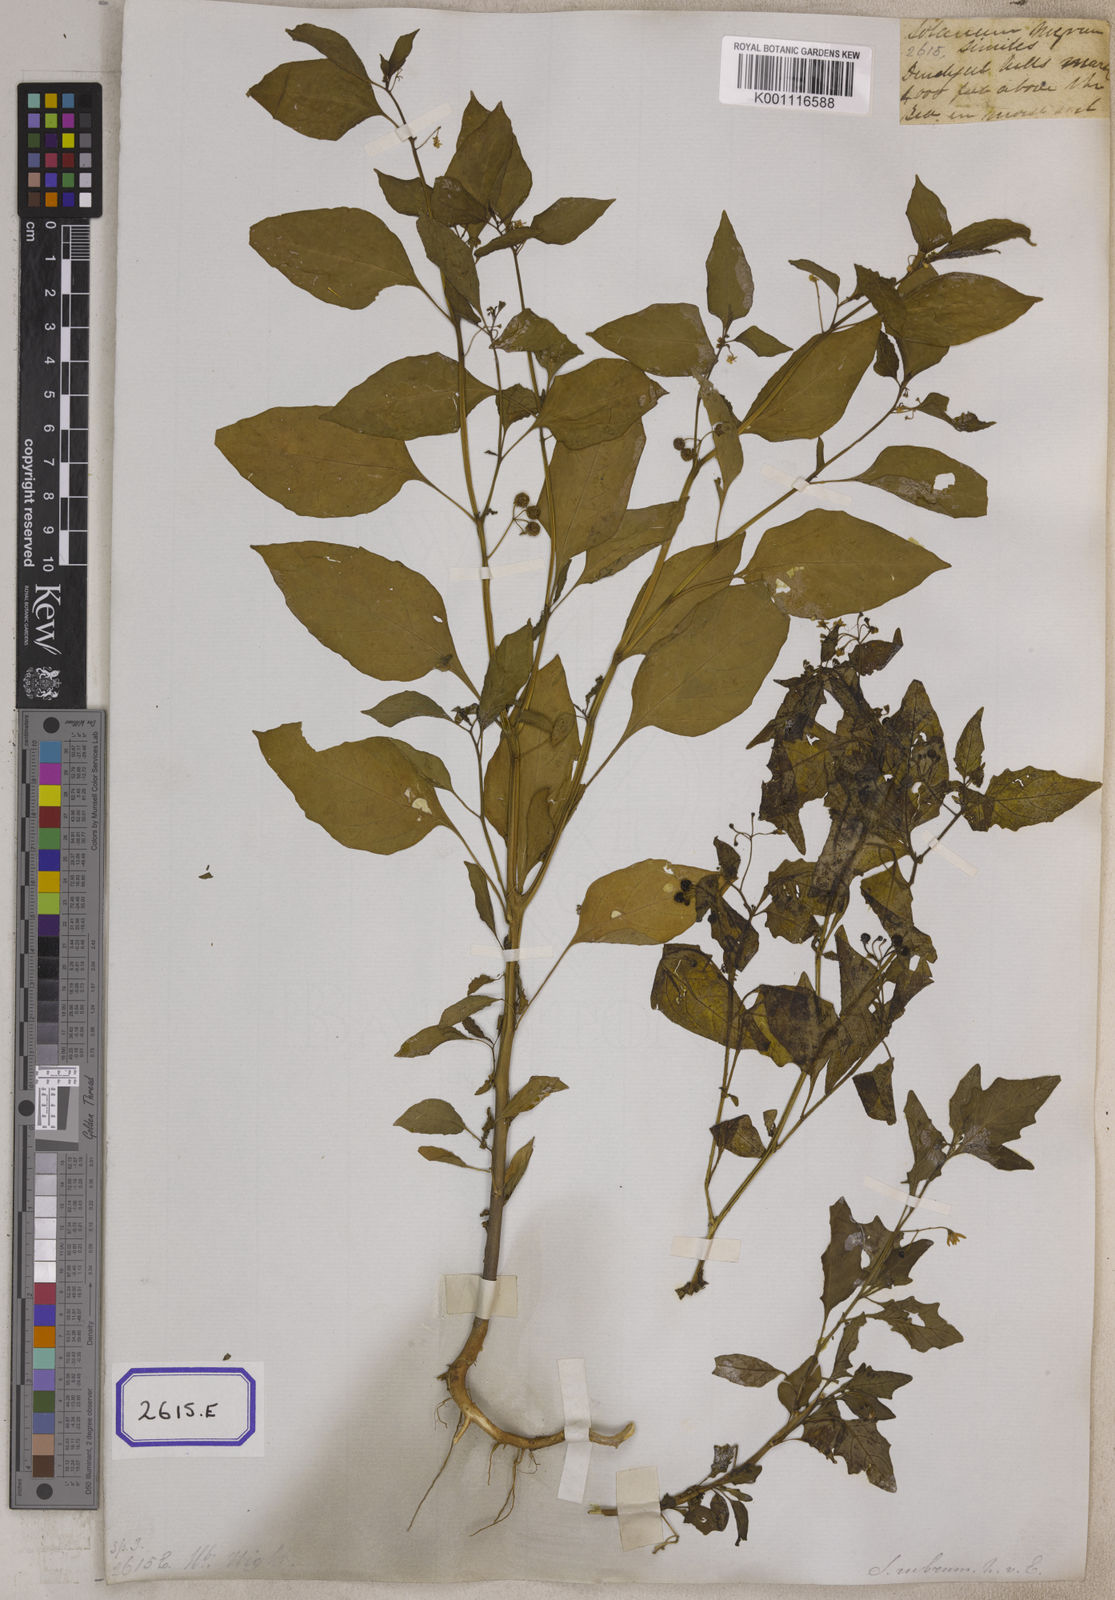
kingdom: Plantae
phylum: Tracheophyta
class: Magnoliopsida
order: Solanales
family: Solanaceae
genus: Solanum
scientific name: Solanum nigrum
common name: Black nightshade
